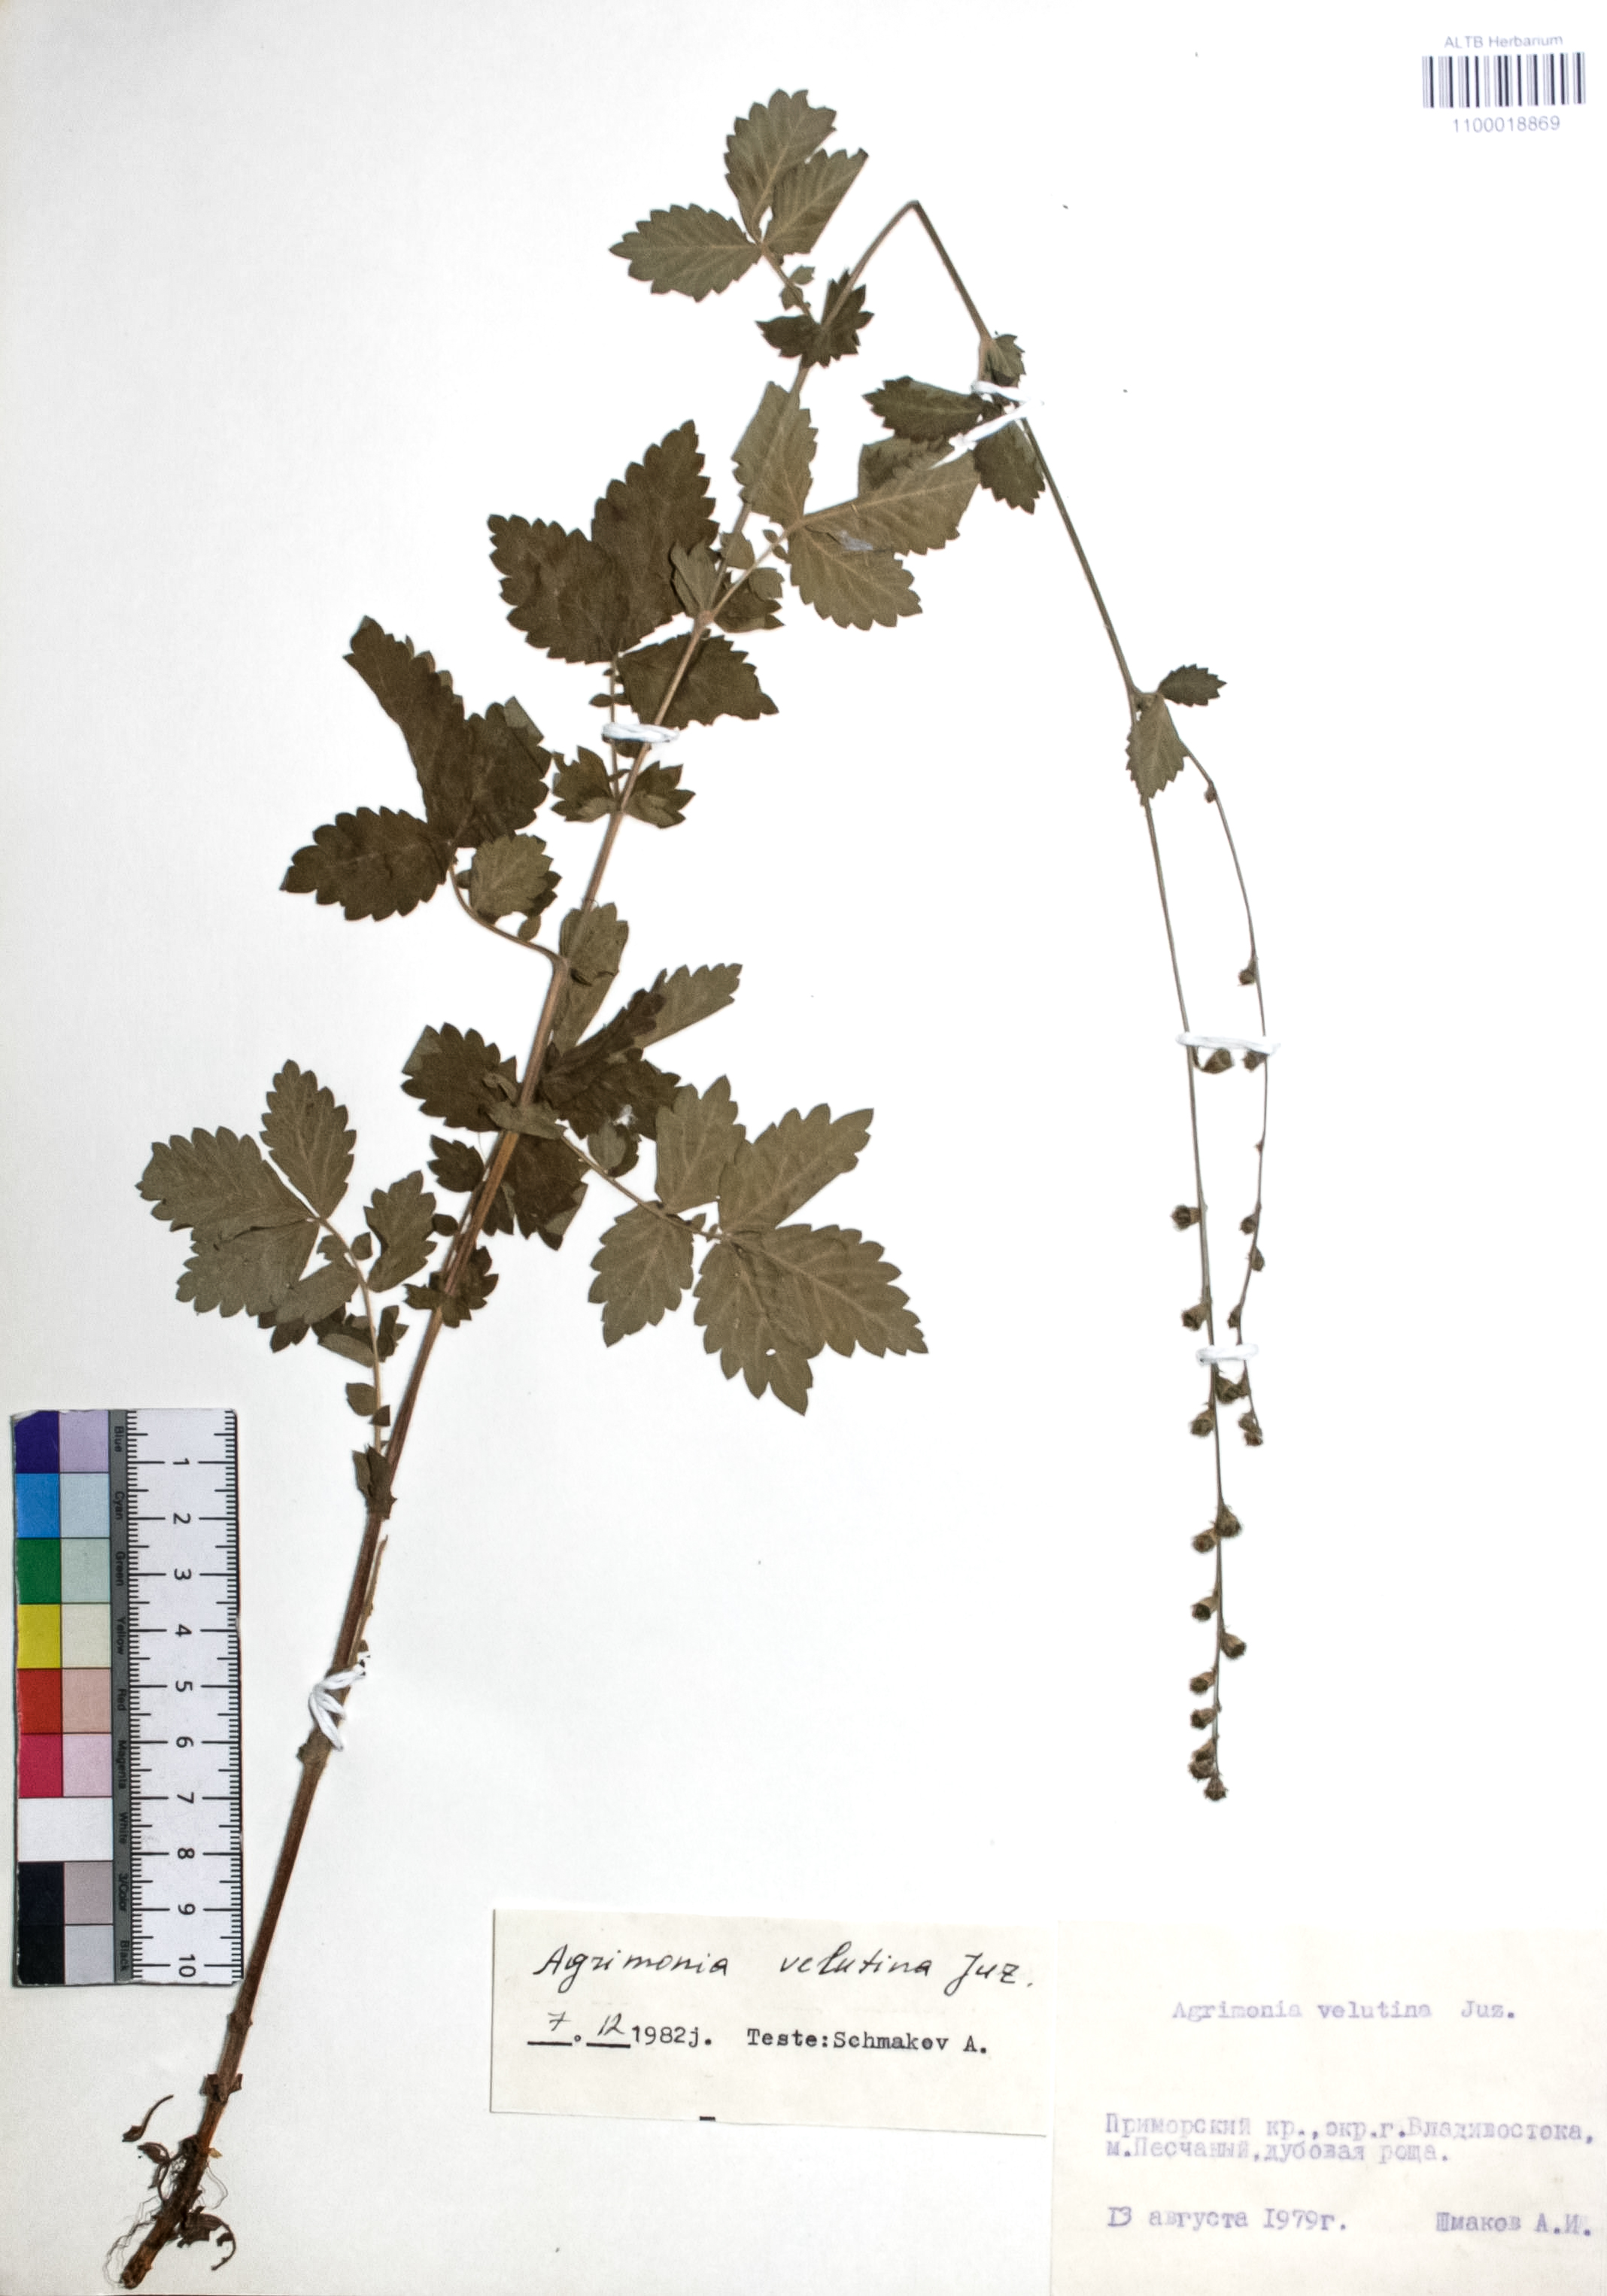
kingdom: Plantae
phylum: Tracheophyta
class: Magnoliopsida
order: Rosales
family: Rosaceae
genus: Agrimonia
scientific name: Agrimonia coreana
